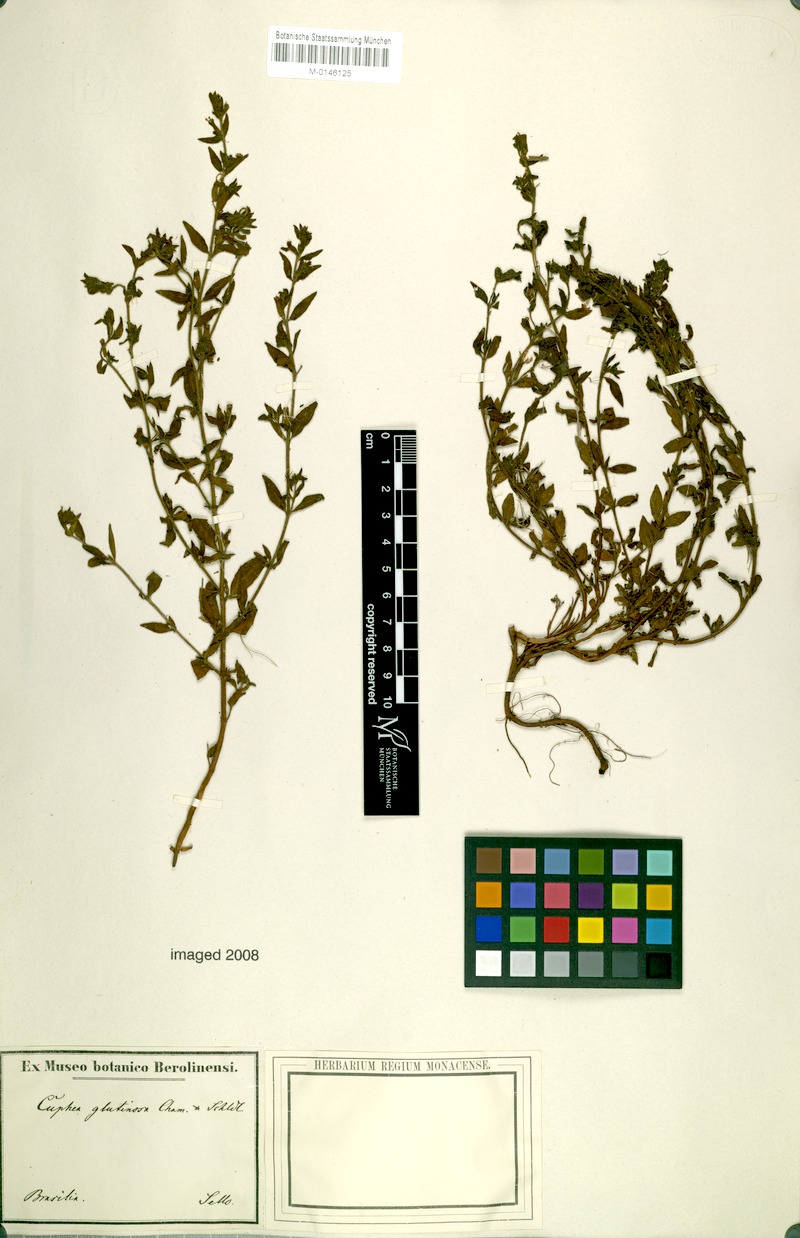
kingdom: Plantae
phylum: Tracheophyta
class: Magnoliopsida
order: Myrtales
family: Lythraceae
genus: Cuphea
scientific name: Cuphea glutinosa
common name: Sticky waxweed
